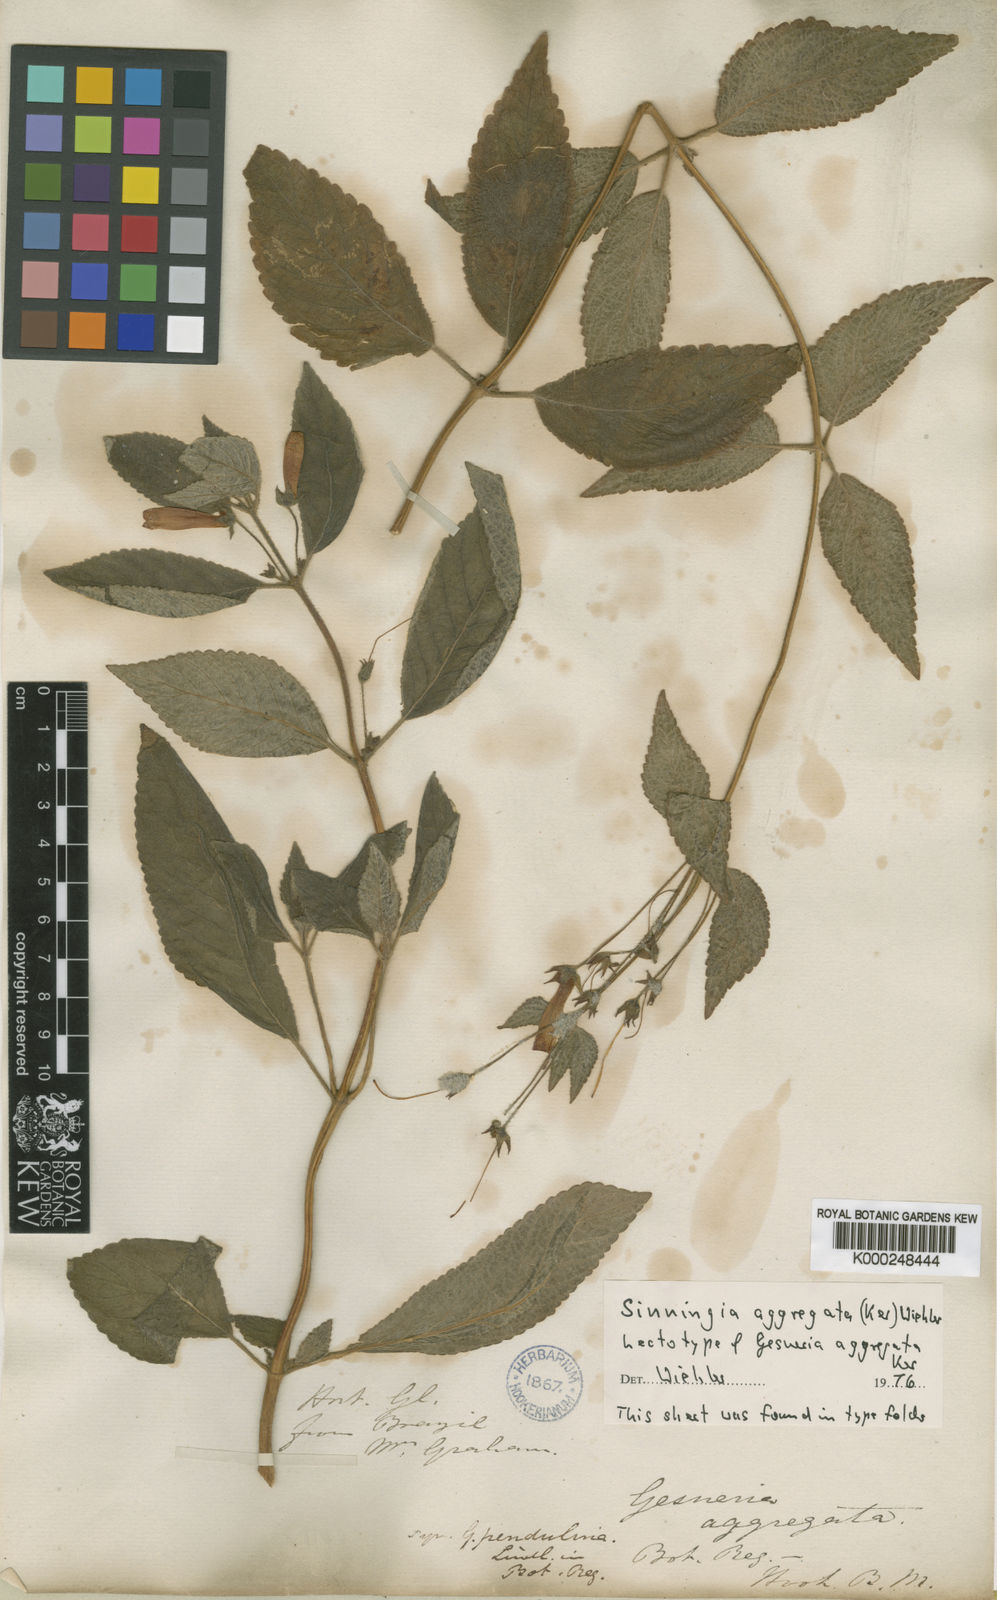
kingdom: Plantae
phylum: Tracheophyta
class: Magnoliopsida
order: Lamiales
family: Gesneriaceae
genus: Sinningia
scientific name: Sinningia aggregata
